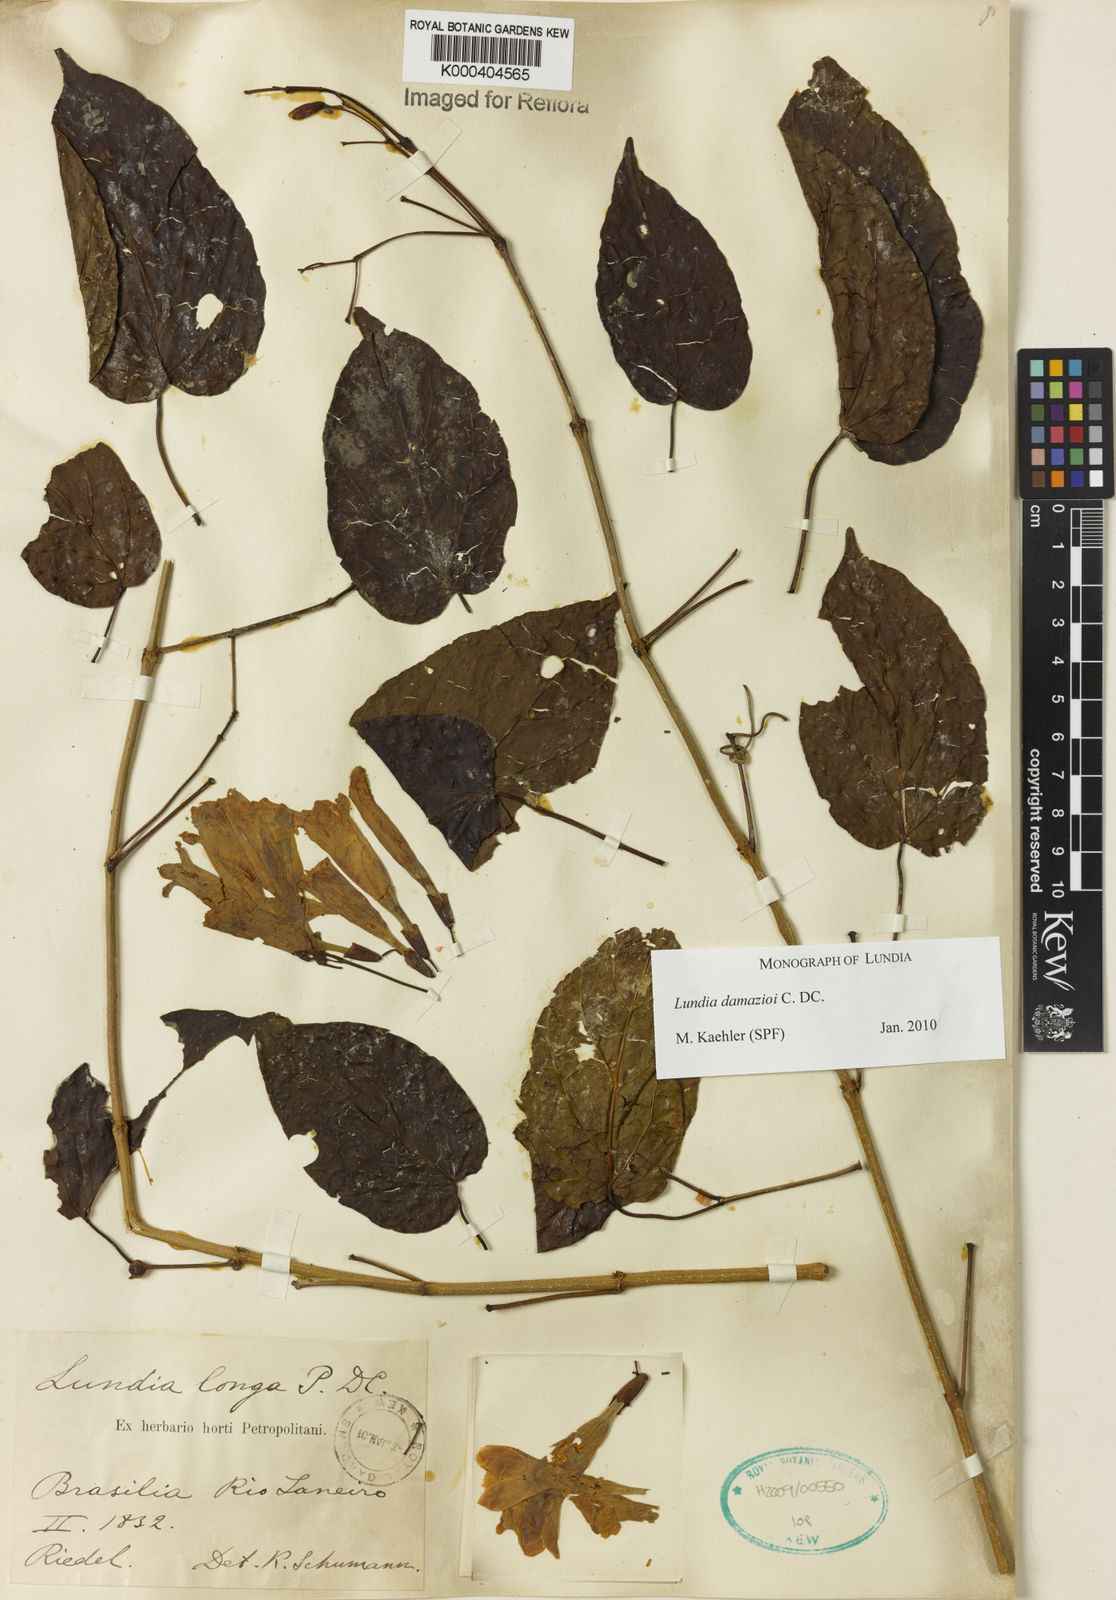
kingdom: Plantae
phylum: Tracheophyta
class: Magnoliopsida
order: Lamiales
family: Bignoniaceae
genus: Lundia
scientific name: Lundia
